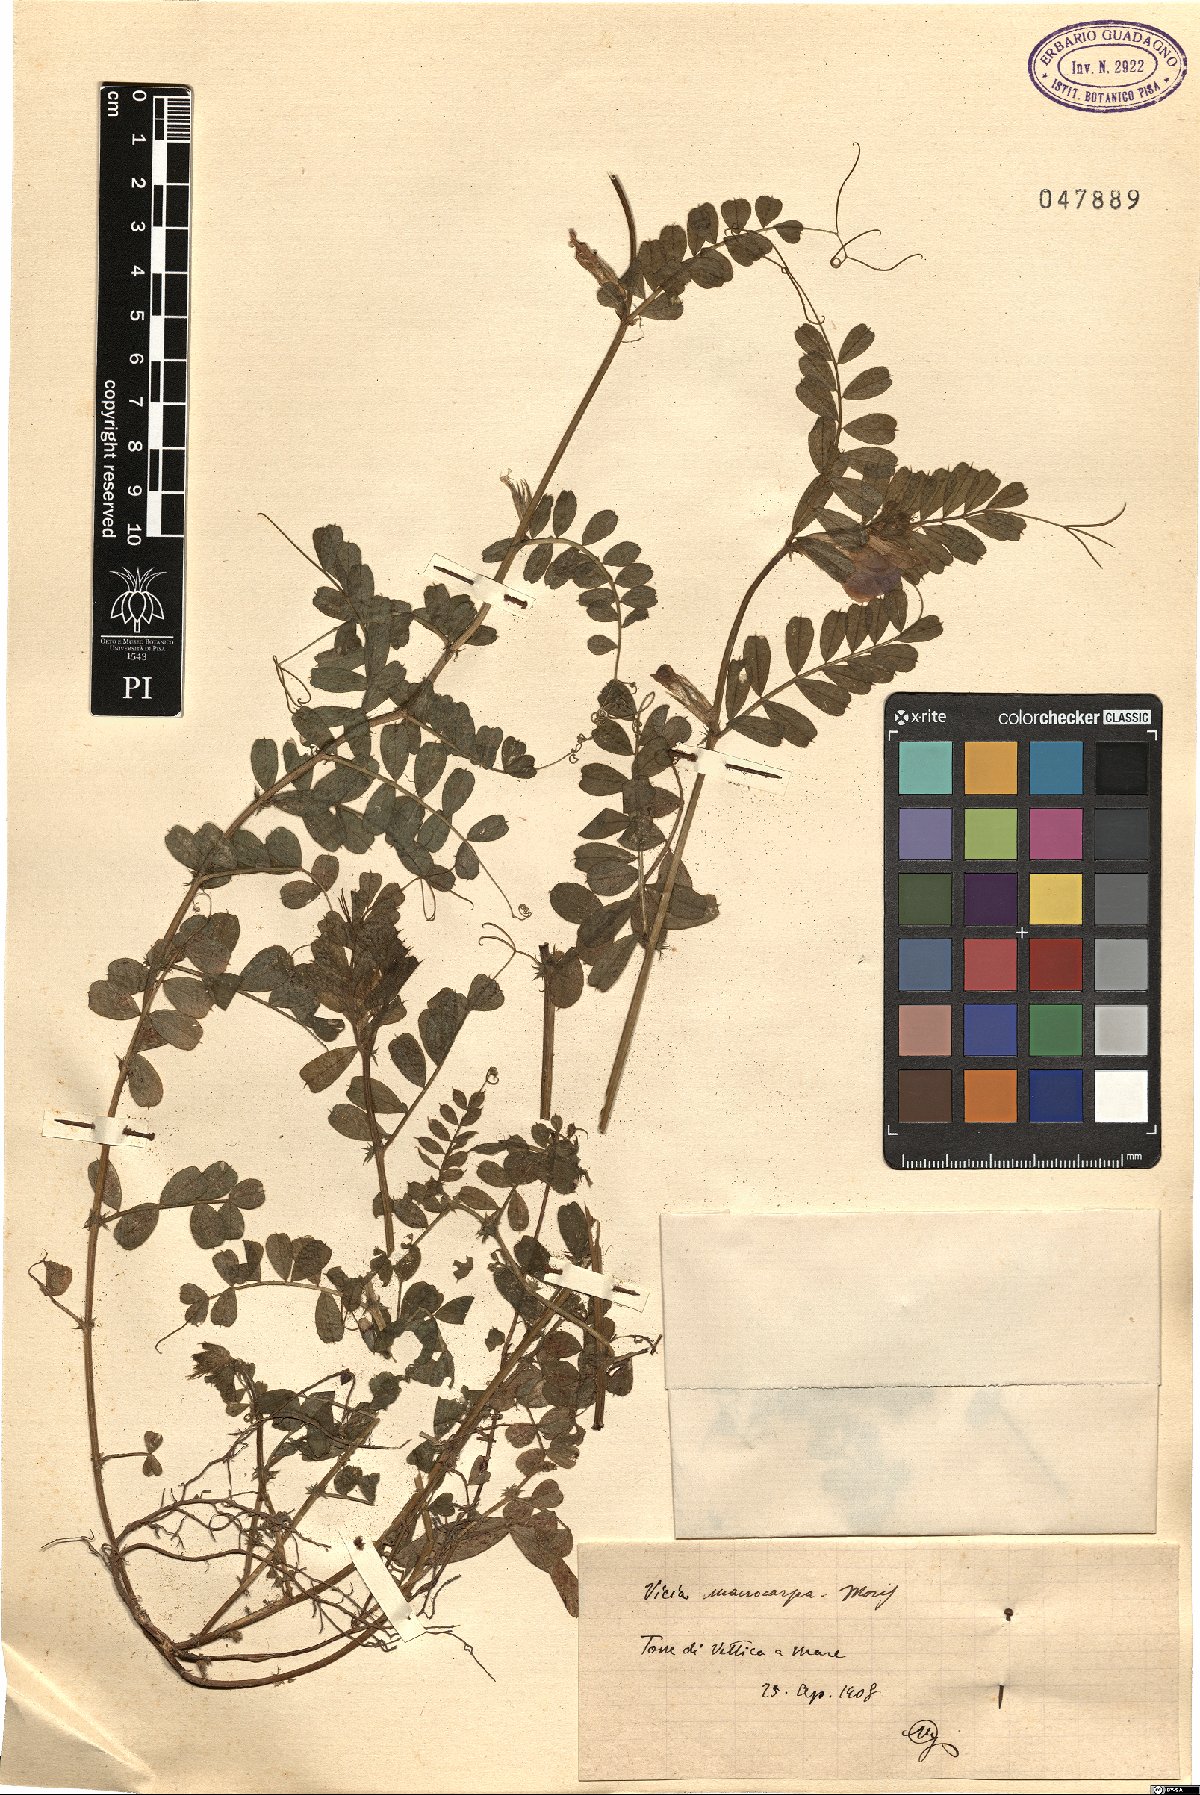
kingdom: Plantae
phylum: Tracheophyta
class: Magnoliopsida
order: Fabales
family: Fabaceae
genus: Vicia
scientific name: Vicia sativa
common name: Garden vetch
